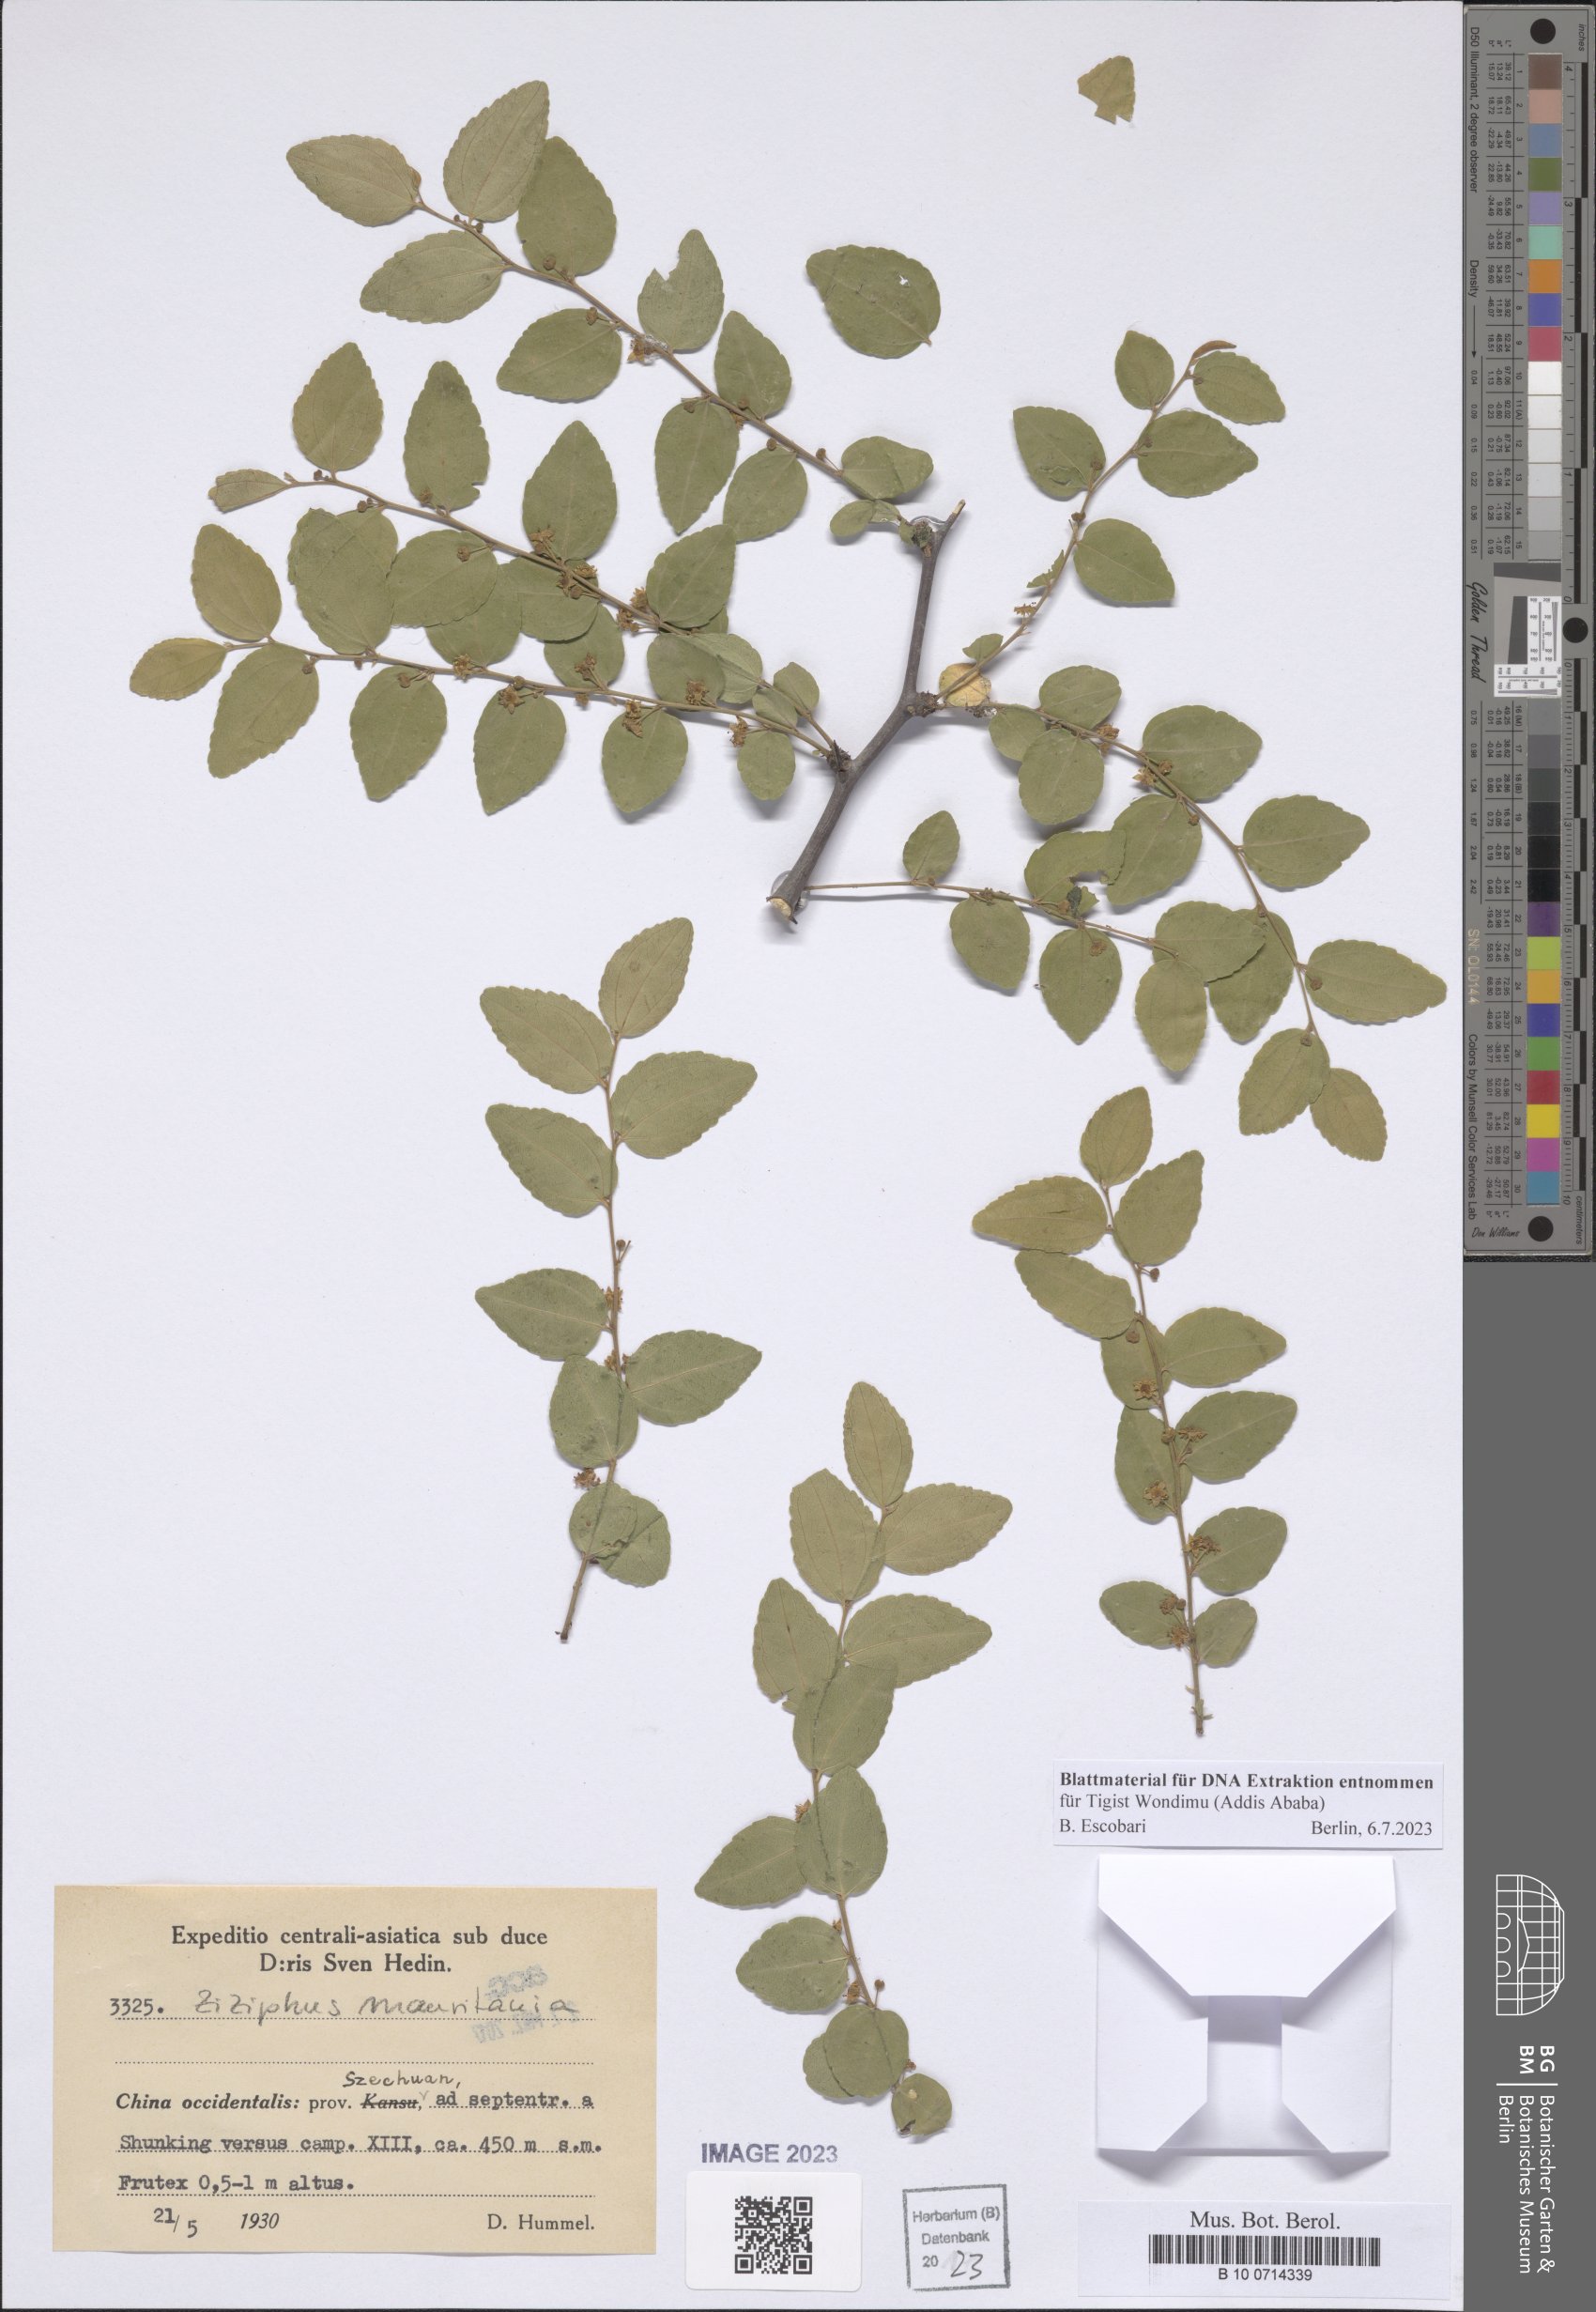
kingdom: Plantae
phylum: Tracheophyta
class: Magnoliopsida
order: Rosales
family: Rhamnaceae
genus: Ziziphus
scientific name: Ziziphus mauritiana
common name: Indian jujube
